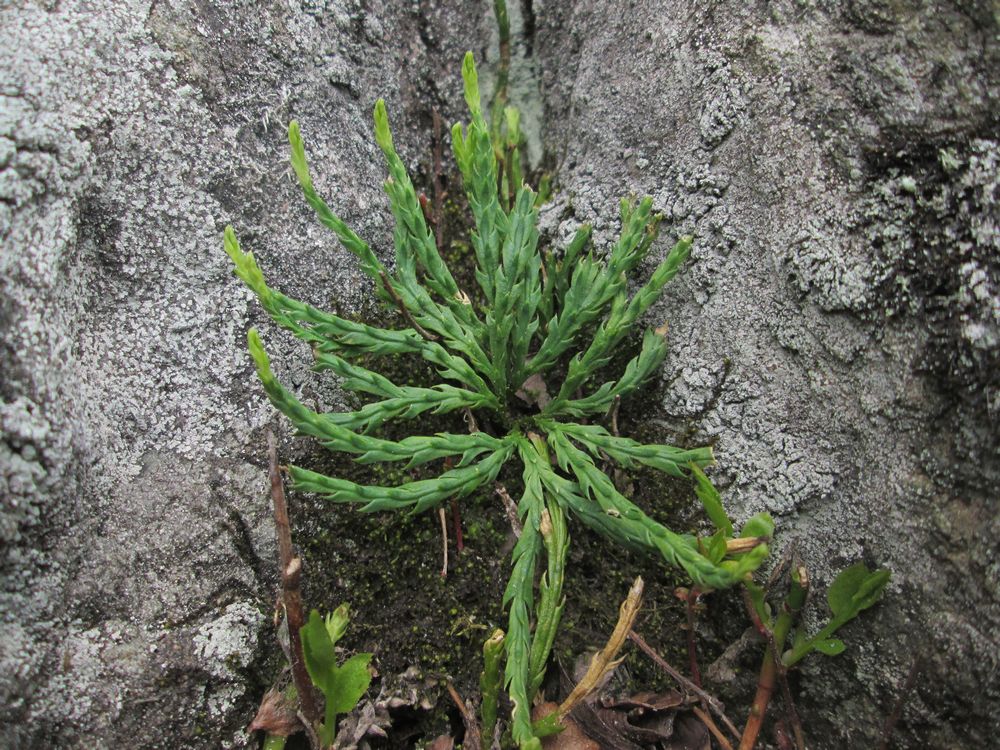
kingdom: Plantae
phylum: Tracheophyta
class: Lycopodiopsida
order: Lycopodiales
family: Lycopodiaceae
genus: Diphasiastrum
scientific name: Diphasiastrum alpinum
